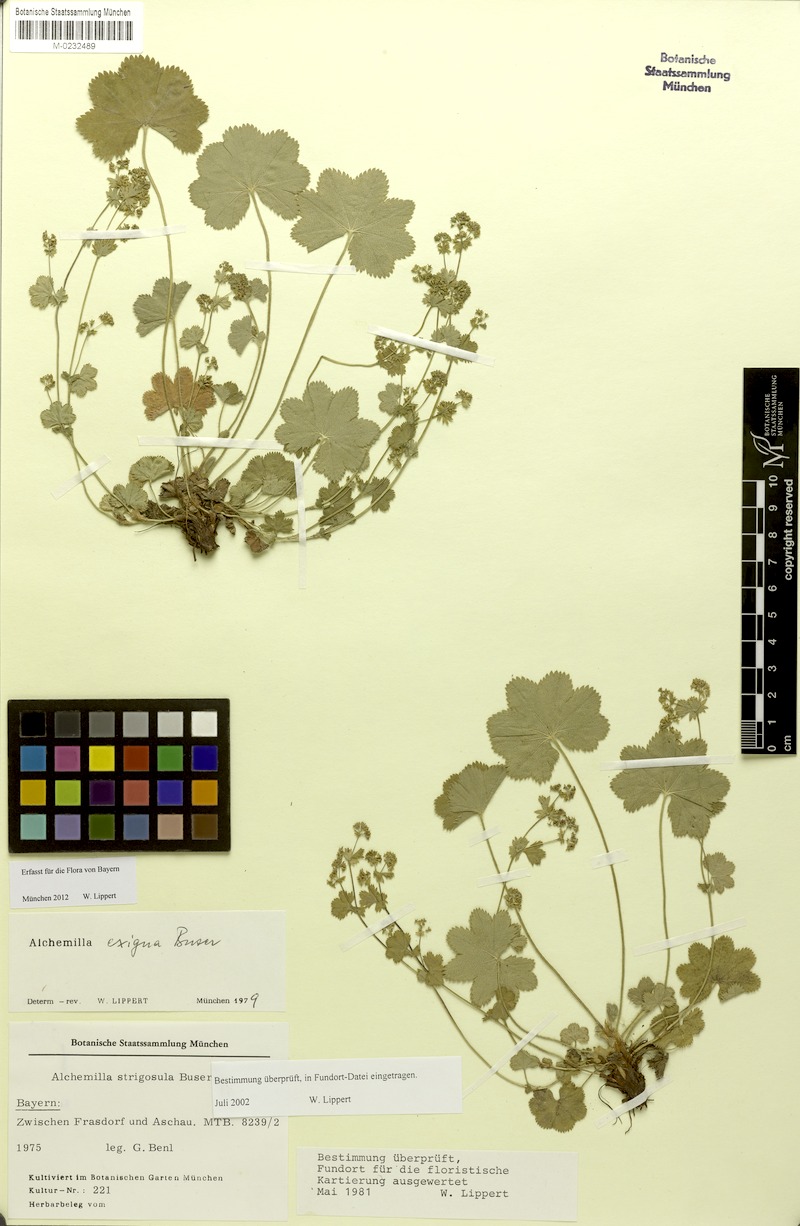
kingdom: Plantae
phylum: Tracheophyta
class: Magnoliopsida
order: Rosales
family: Rosaceae
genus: Alchemilla
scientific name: Alchemilla exigua
